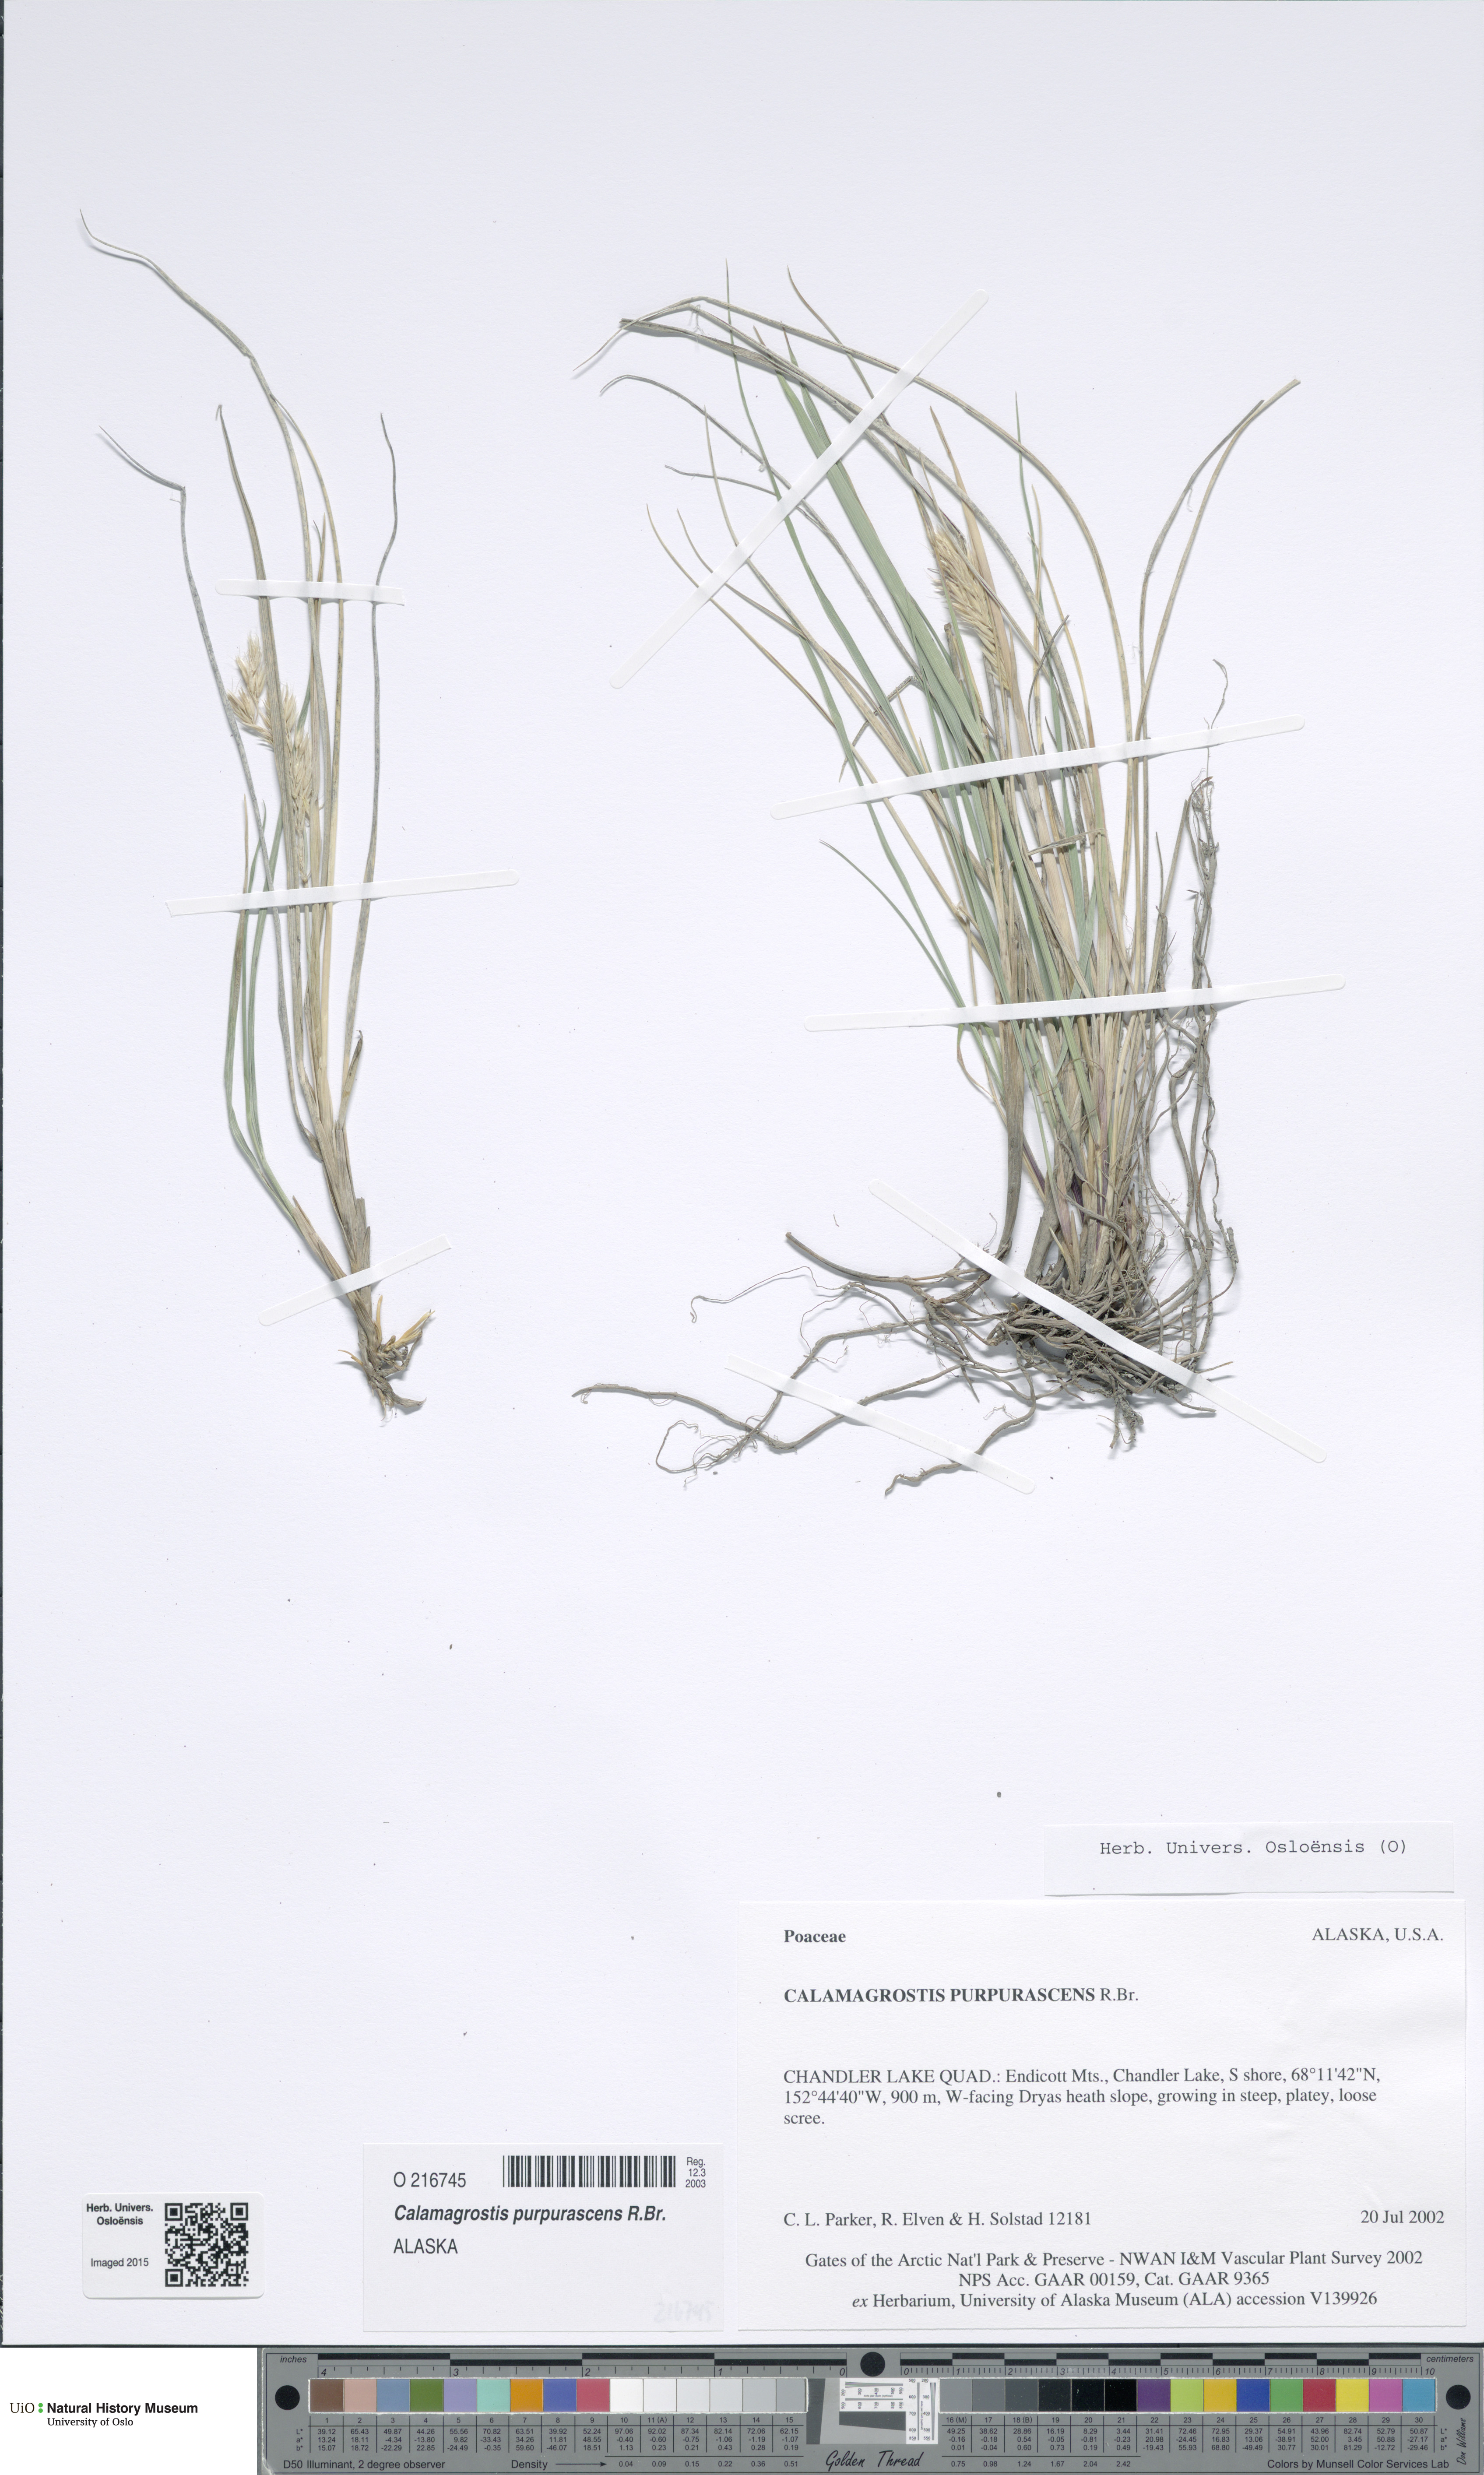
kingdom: Plantae
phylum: Tracheophyta
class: Liliopsida
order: Poales
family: Poaceae
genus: Calamagrostis
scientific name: Calamagrostis purpurascens
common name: Purple reedgrass
